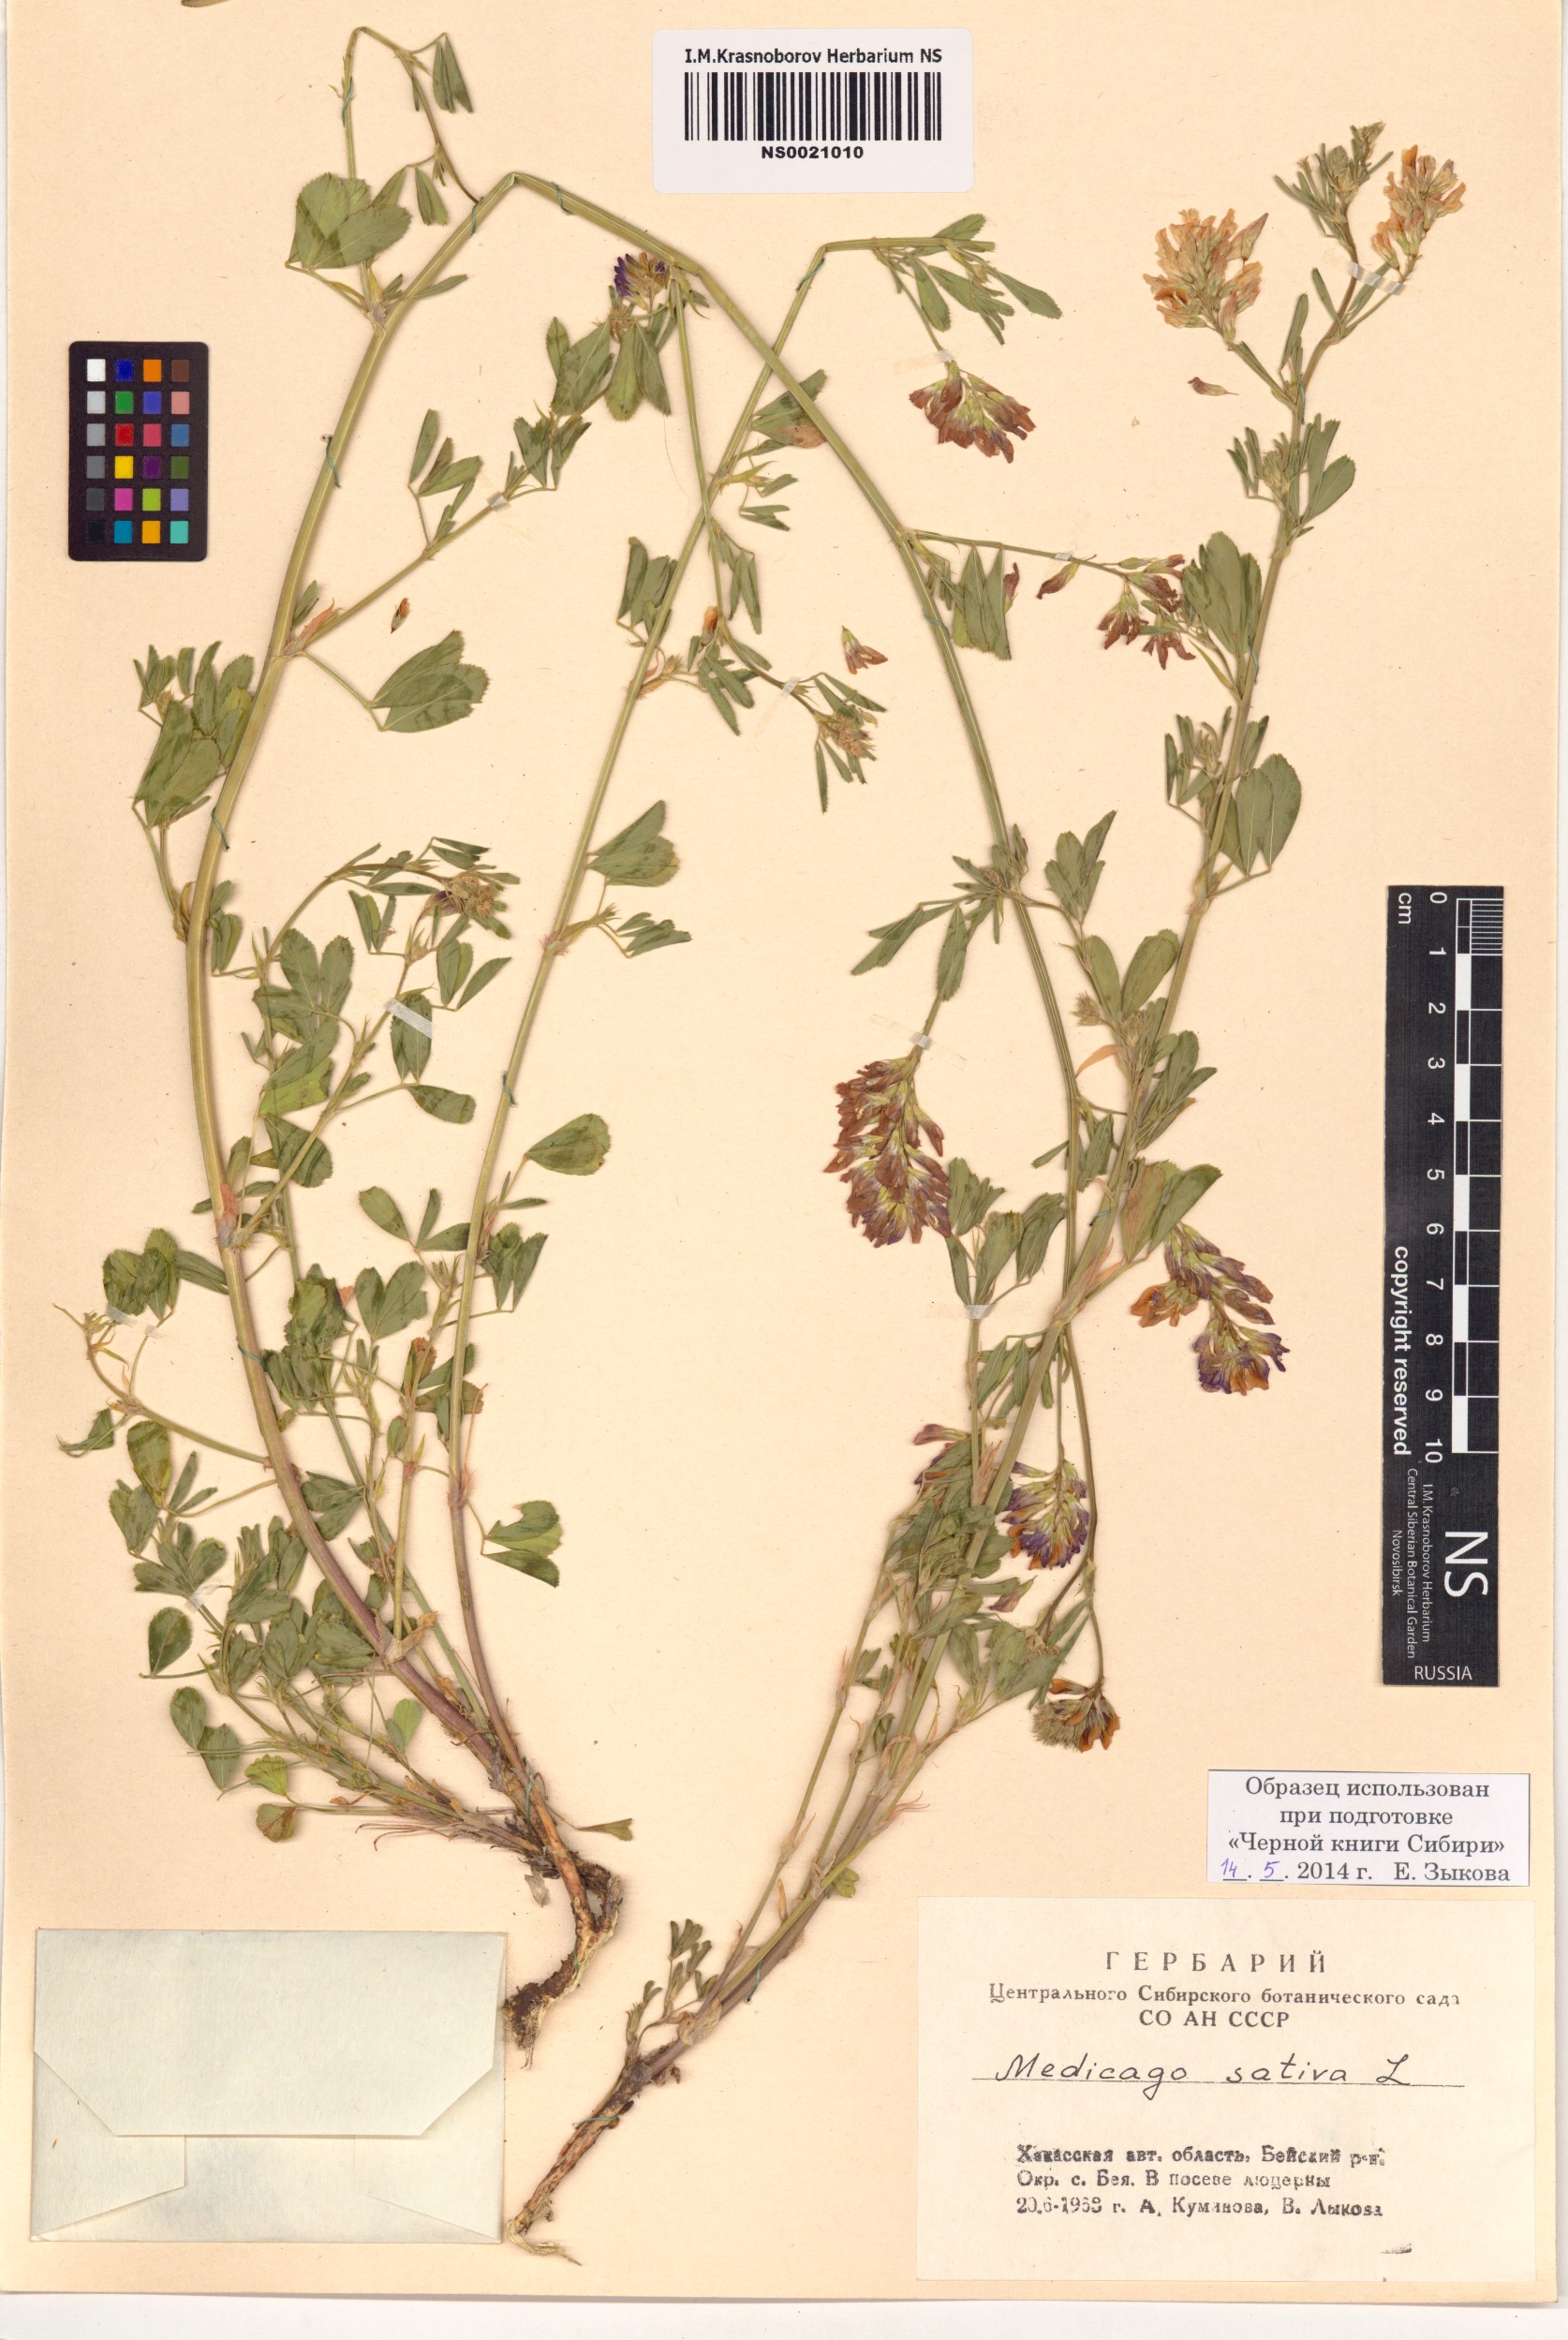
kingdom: Plantae
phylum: Tracheophyta
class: Magnoliopsida
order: Fabales
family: Fabaceae
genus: Medicago
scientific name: Medicago sativa
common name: Alfalfa
